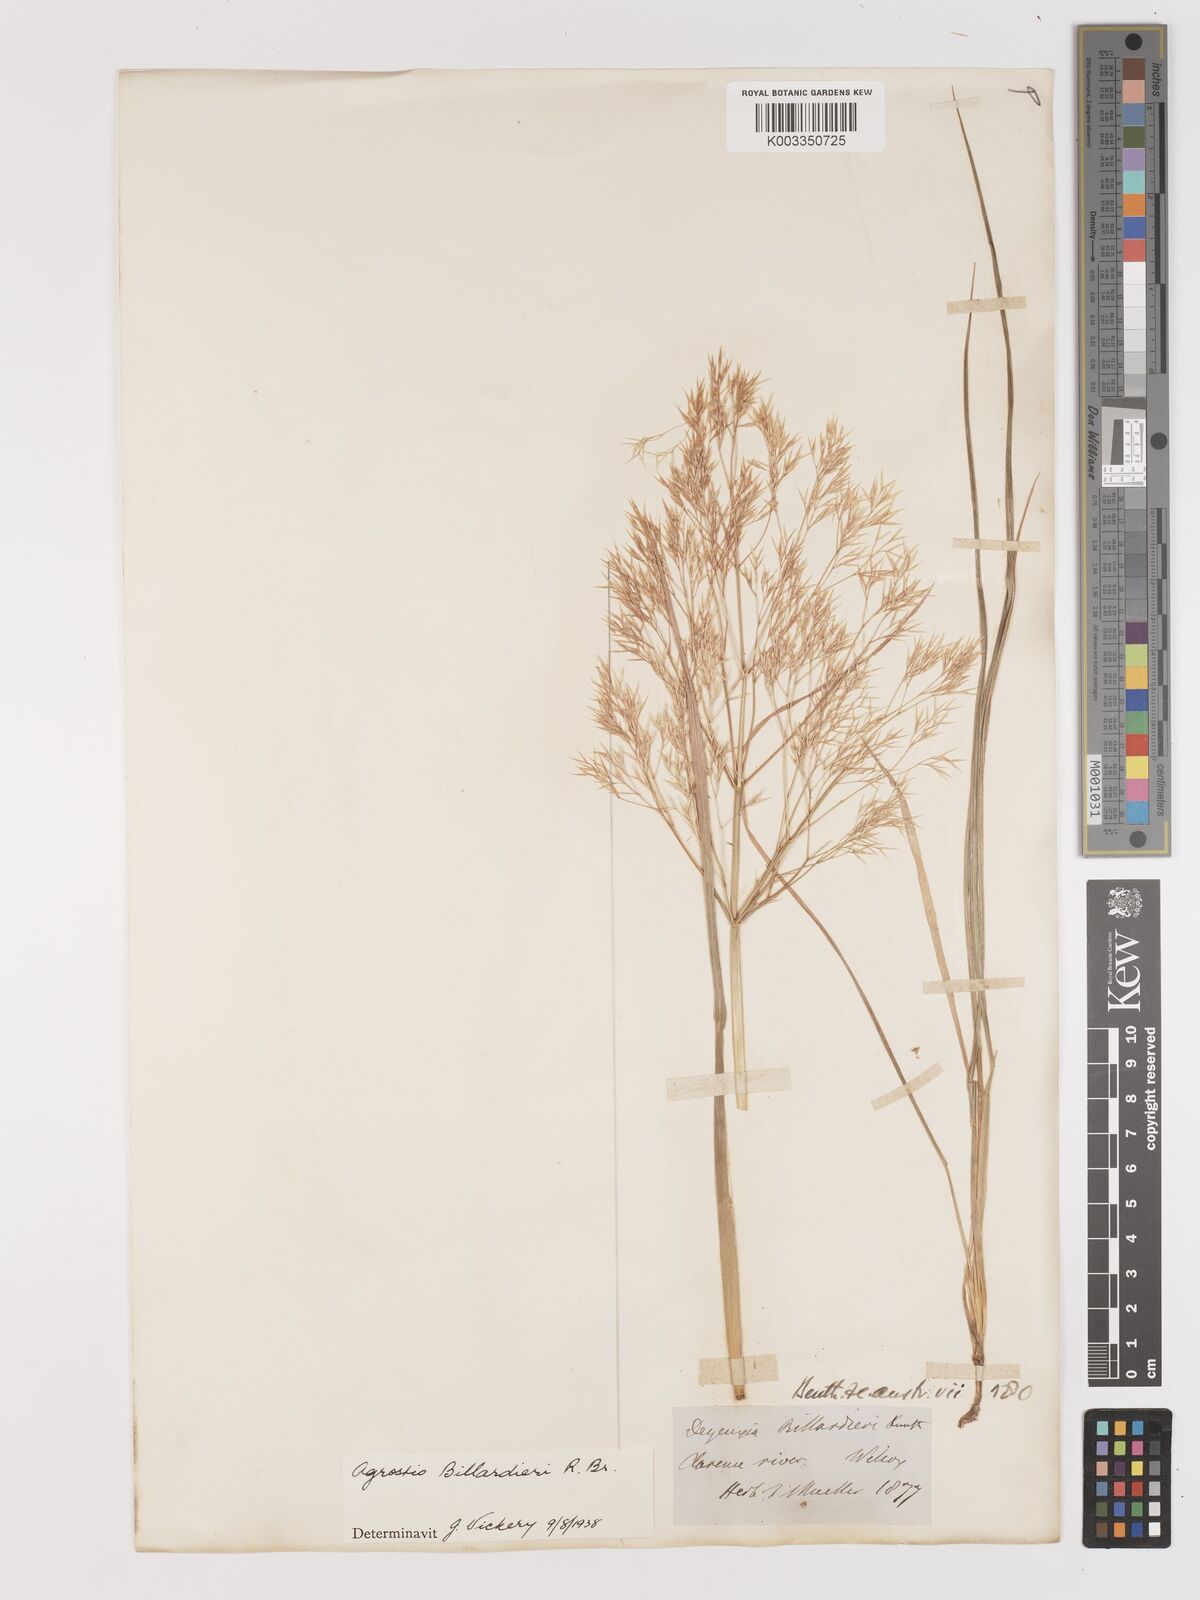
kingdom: Plantae
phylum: Tracheophyta
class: Liliopsida
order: Poales
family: Poaceae
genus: Lachnagrostis
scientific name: Lachnagrostis billardierei
